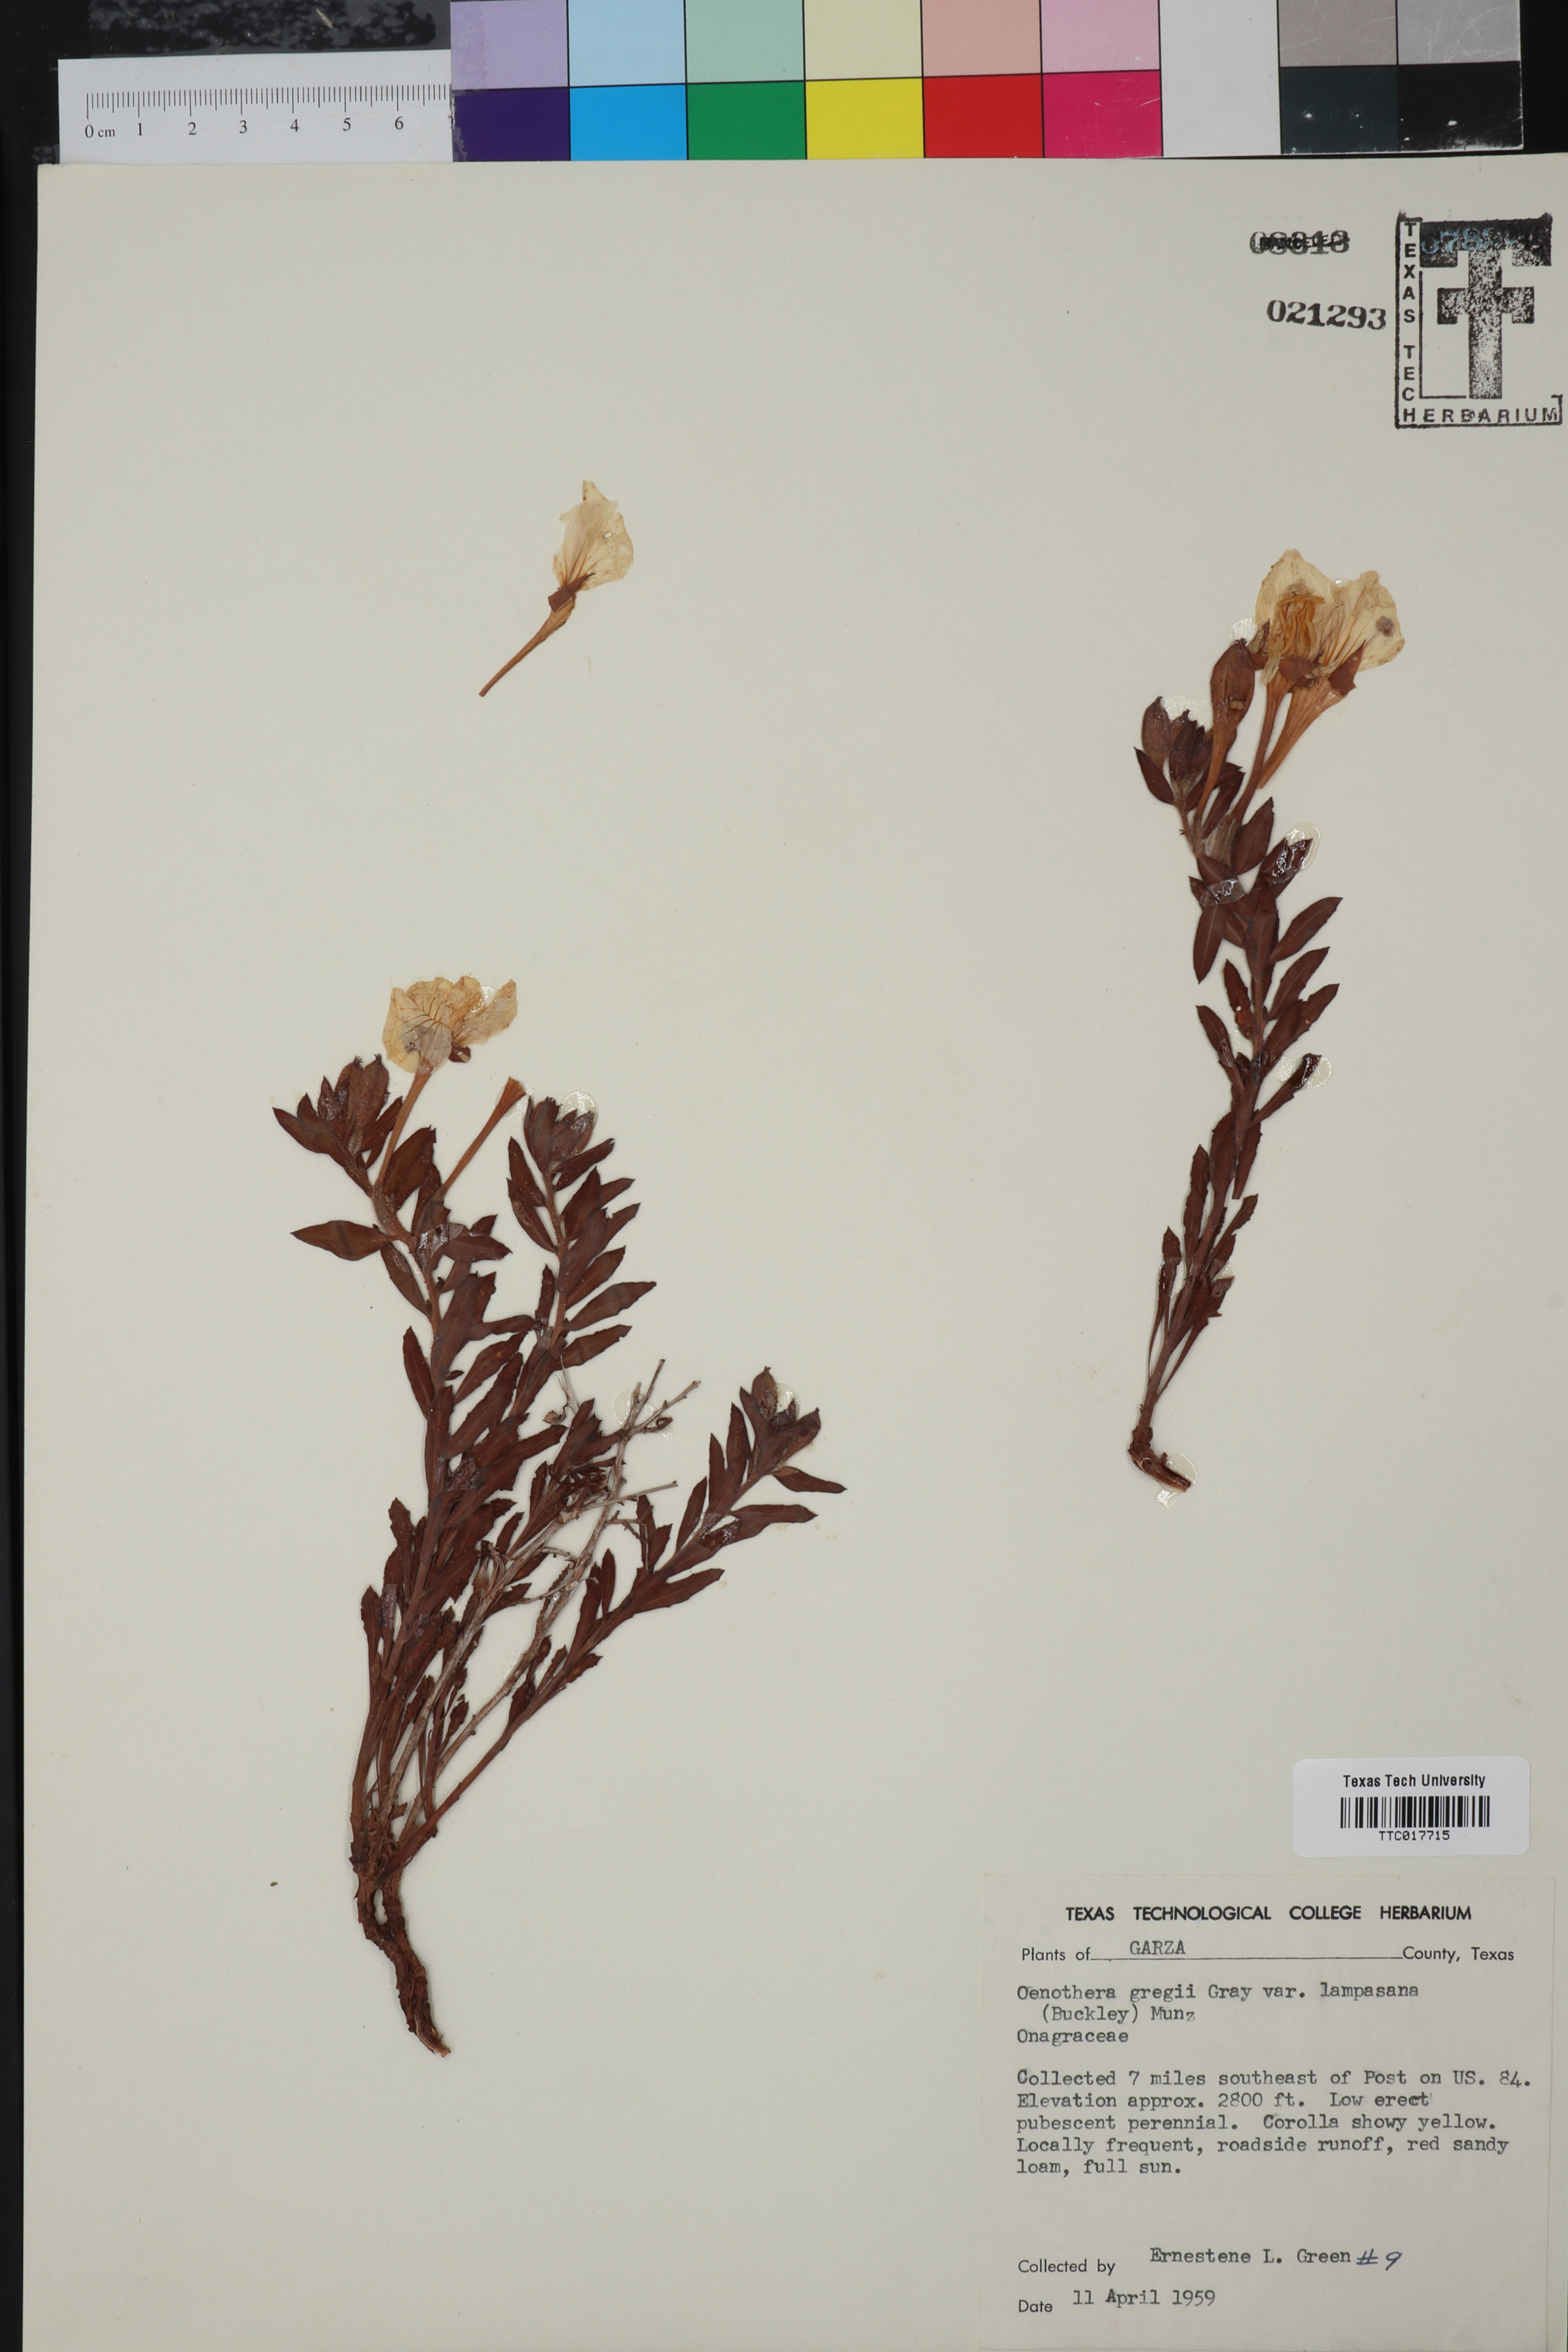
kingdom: Plantae
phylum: Tracheophyta
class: Magnoliopsida
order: Myrtales
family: Onagraceae
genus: Oenothera
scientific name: Oenothera hartwegii
